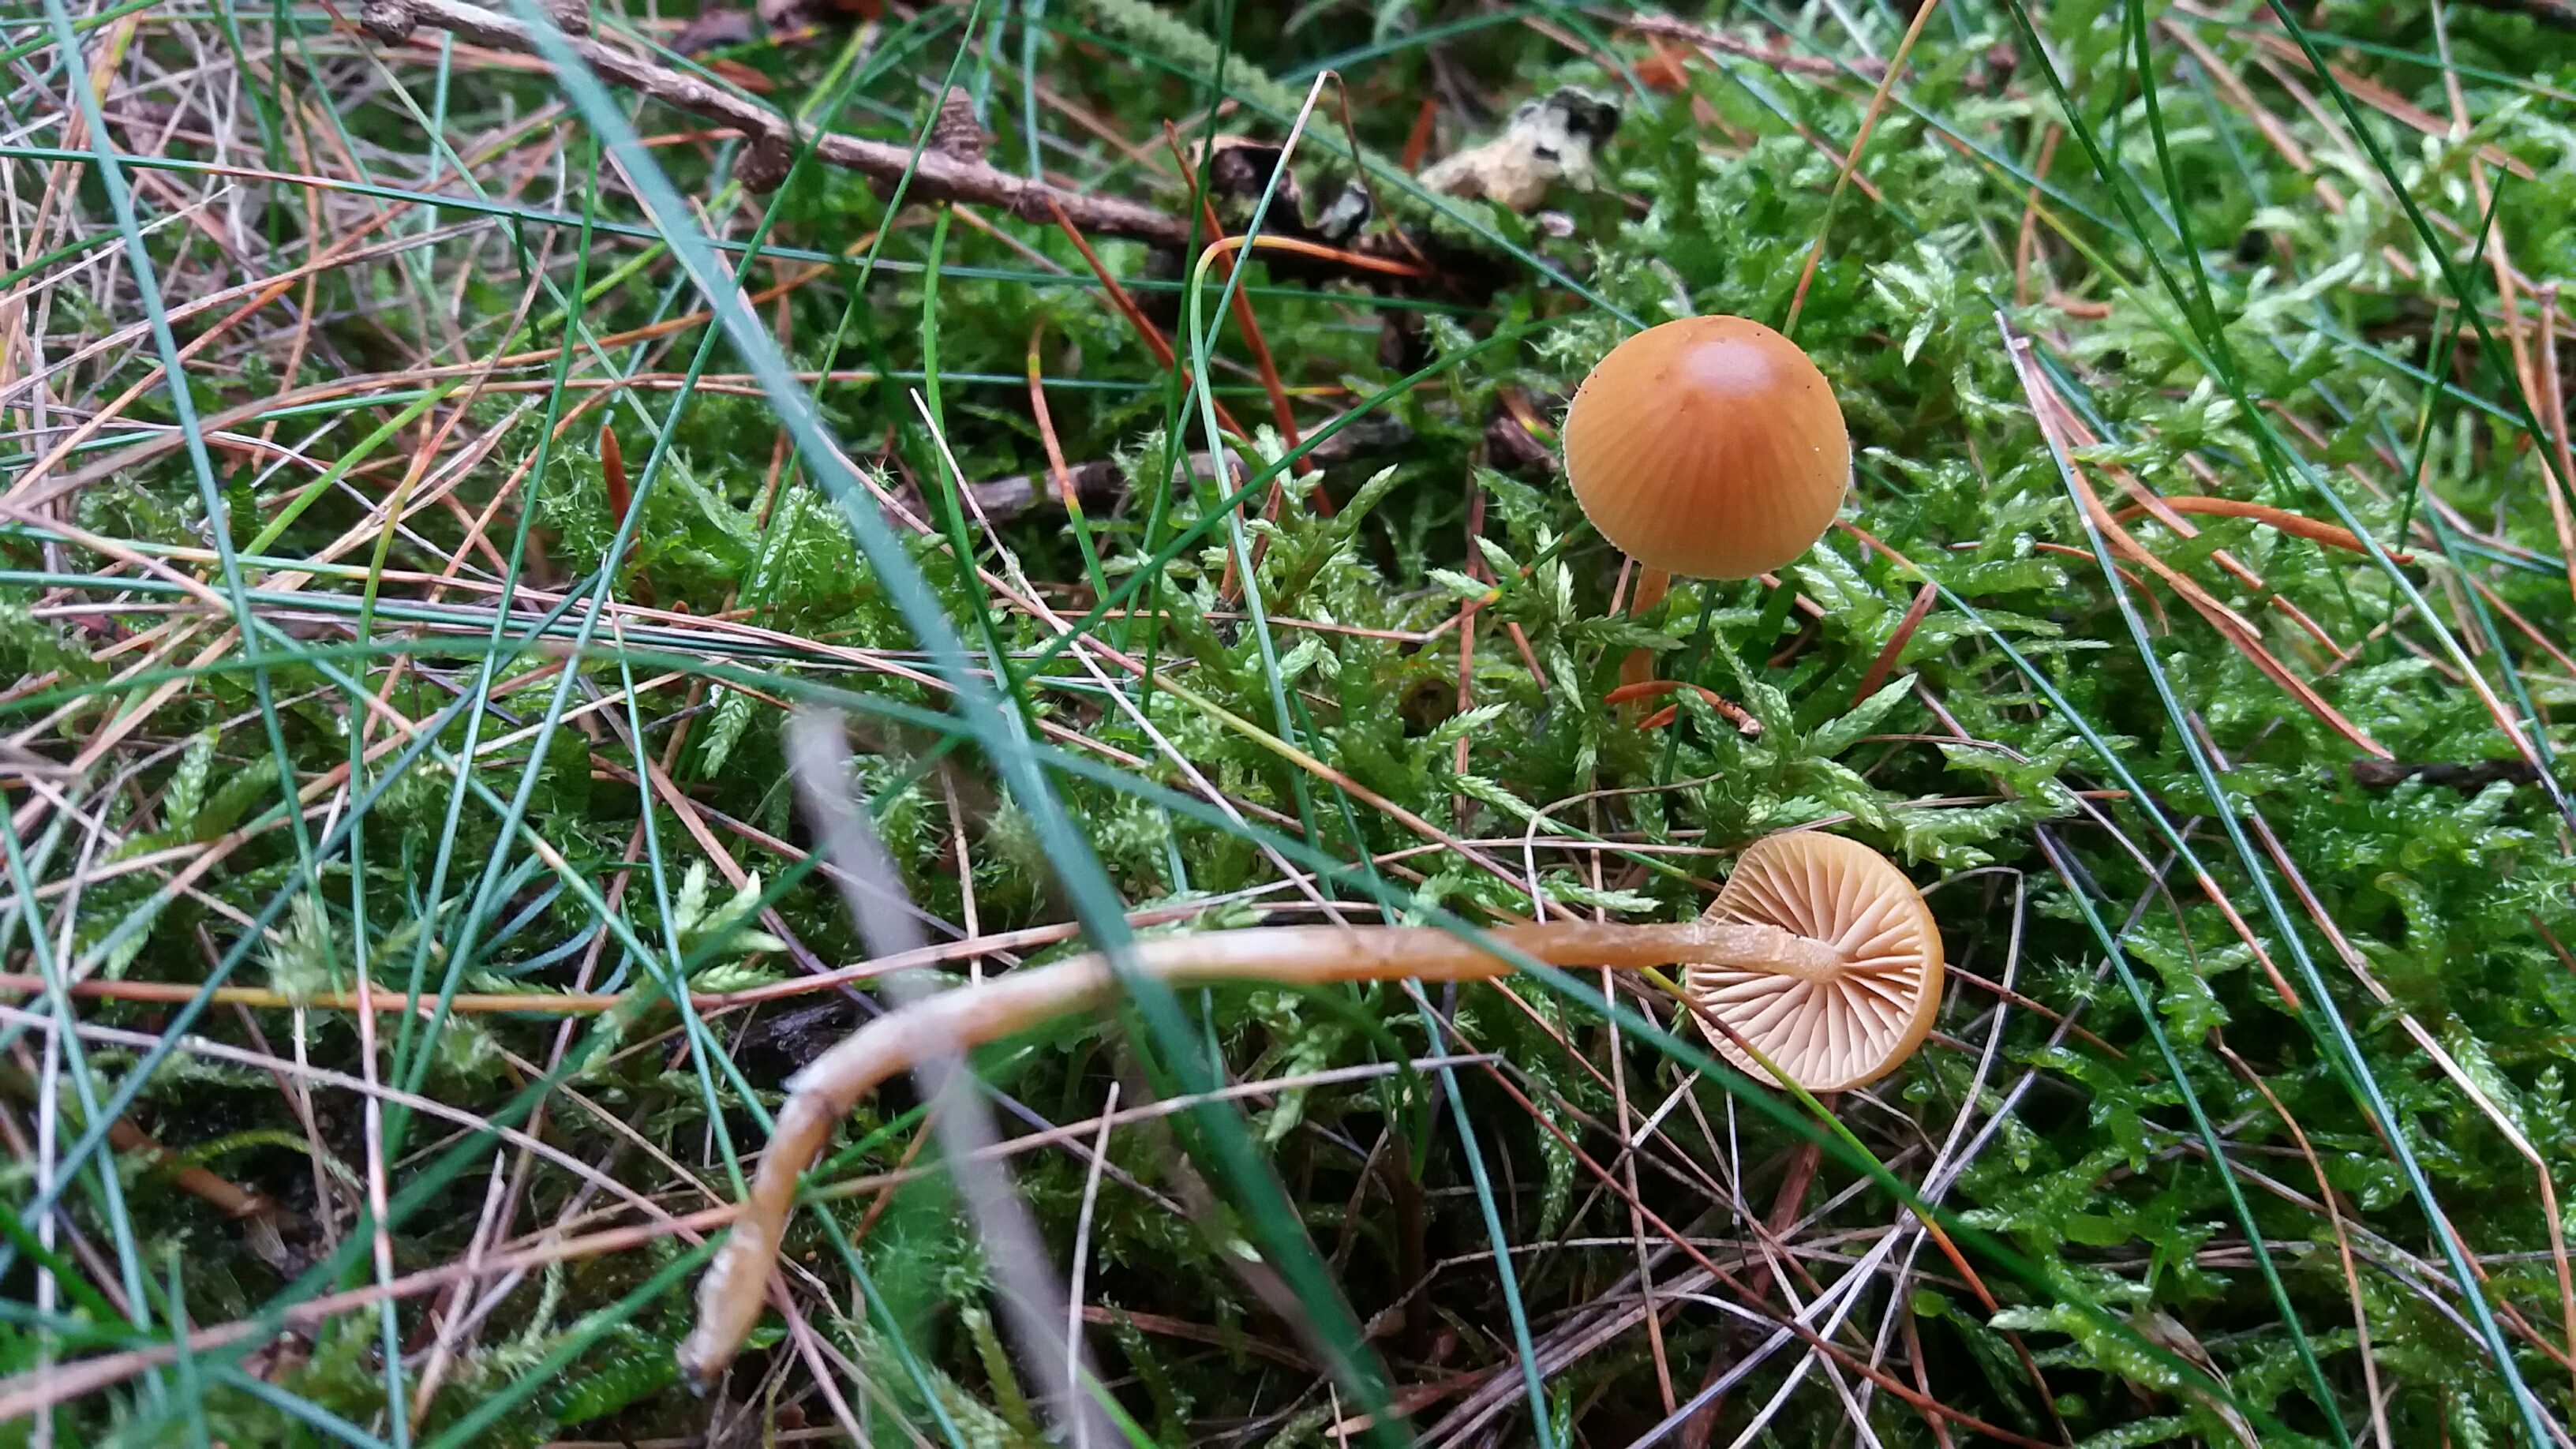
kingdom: Fungi
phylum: Basidiomycota
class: Agaricomycetes
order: Agaricales
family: Hymenogastraceae
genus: Galerina
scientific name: Galerina pumila
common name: honninggul hjelmhat
